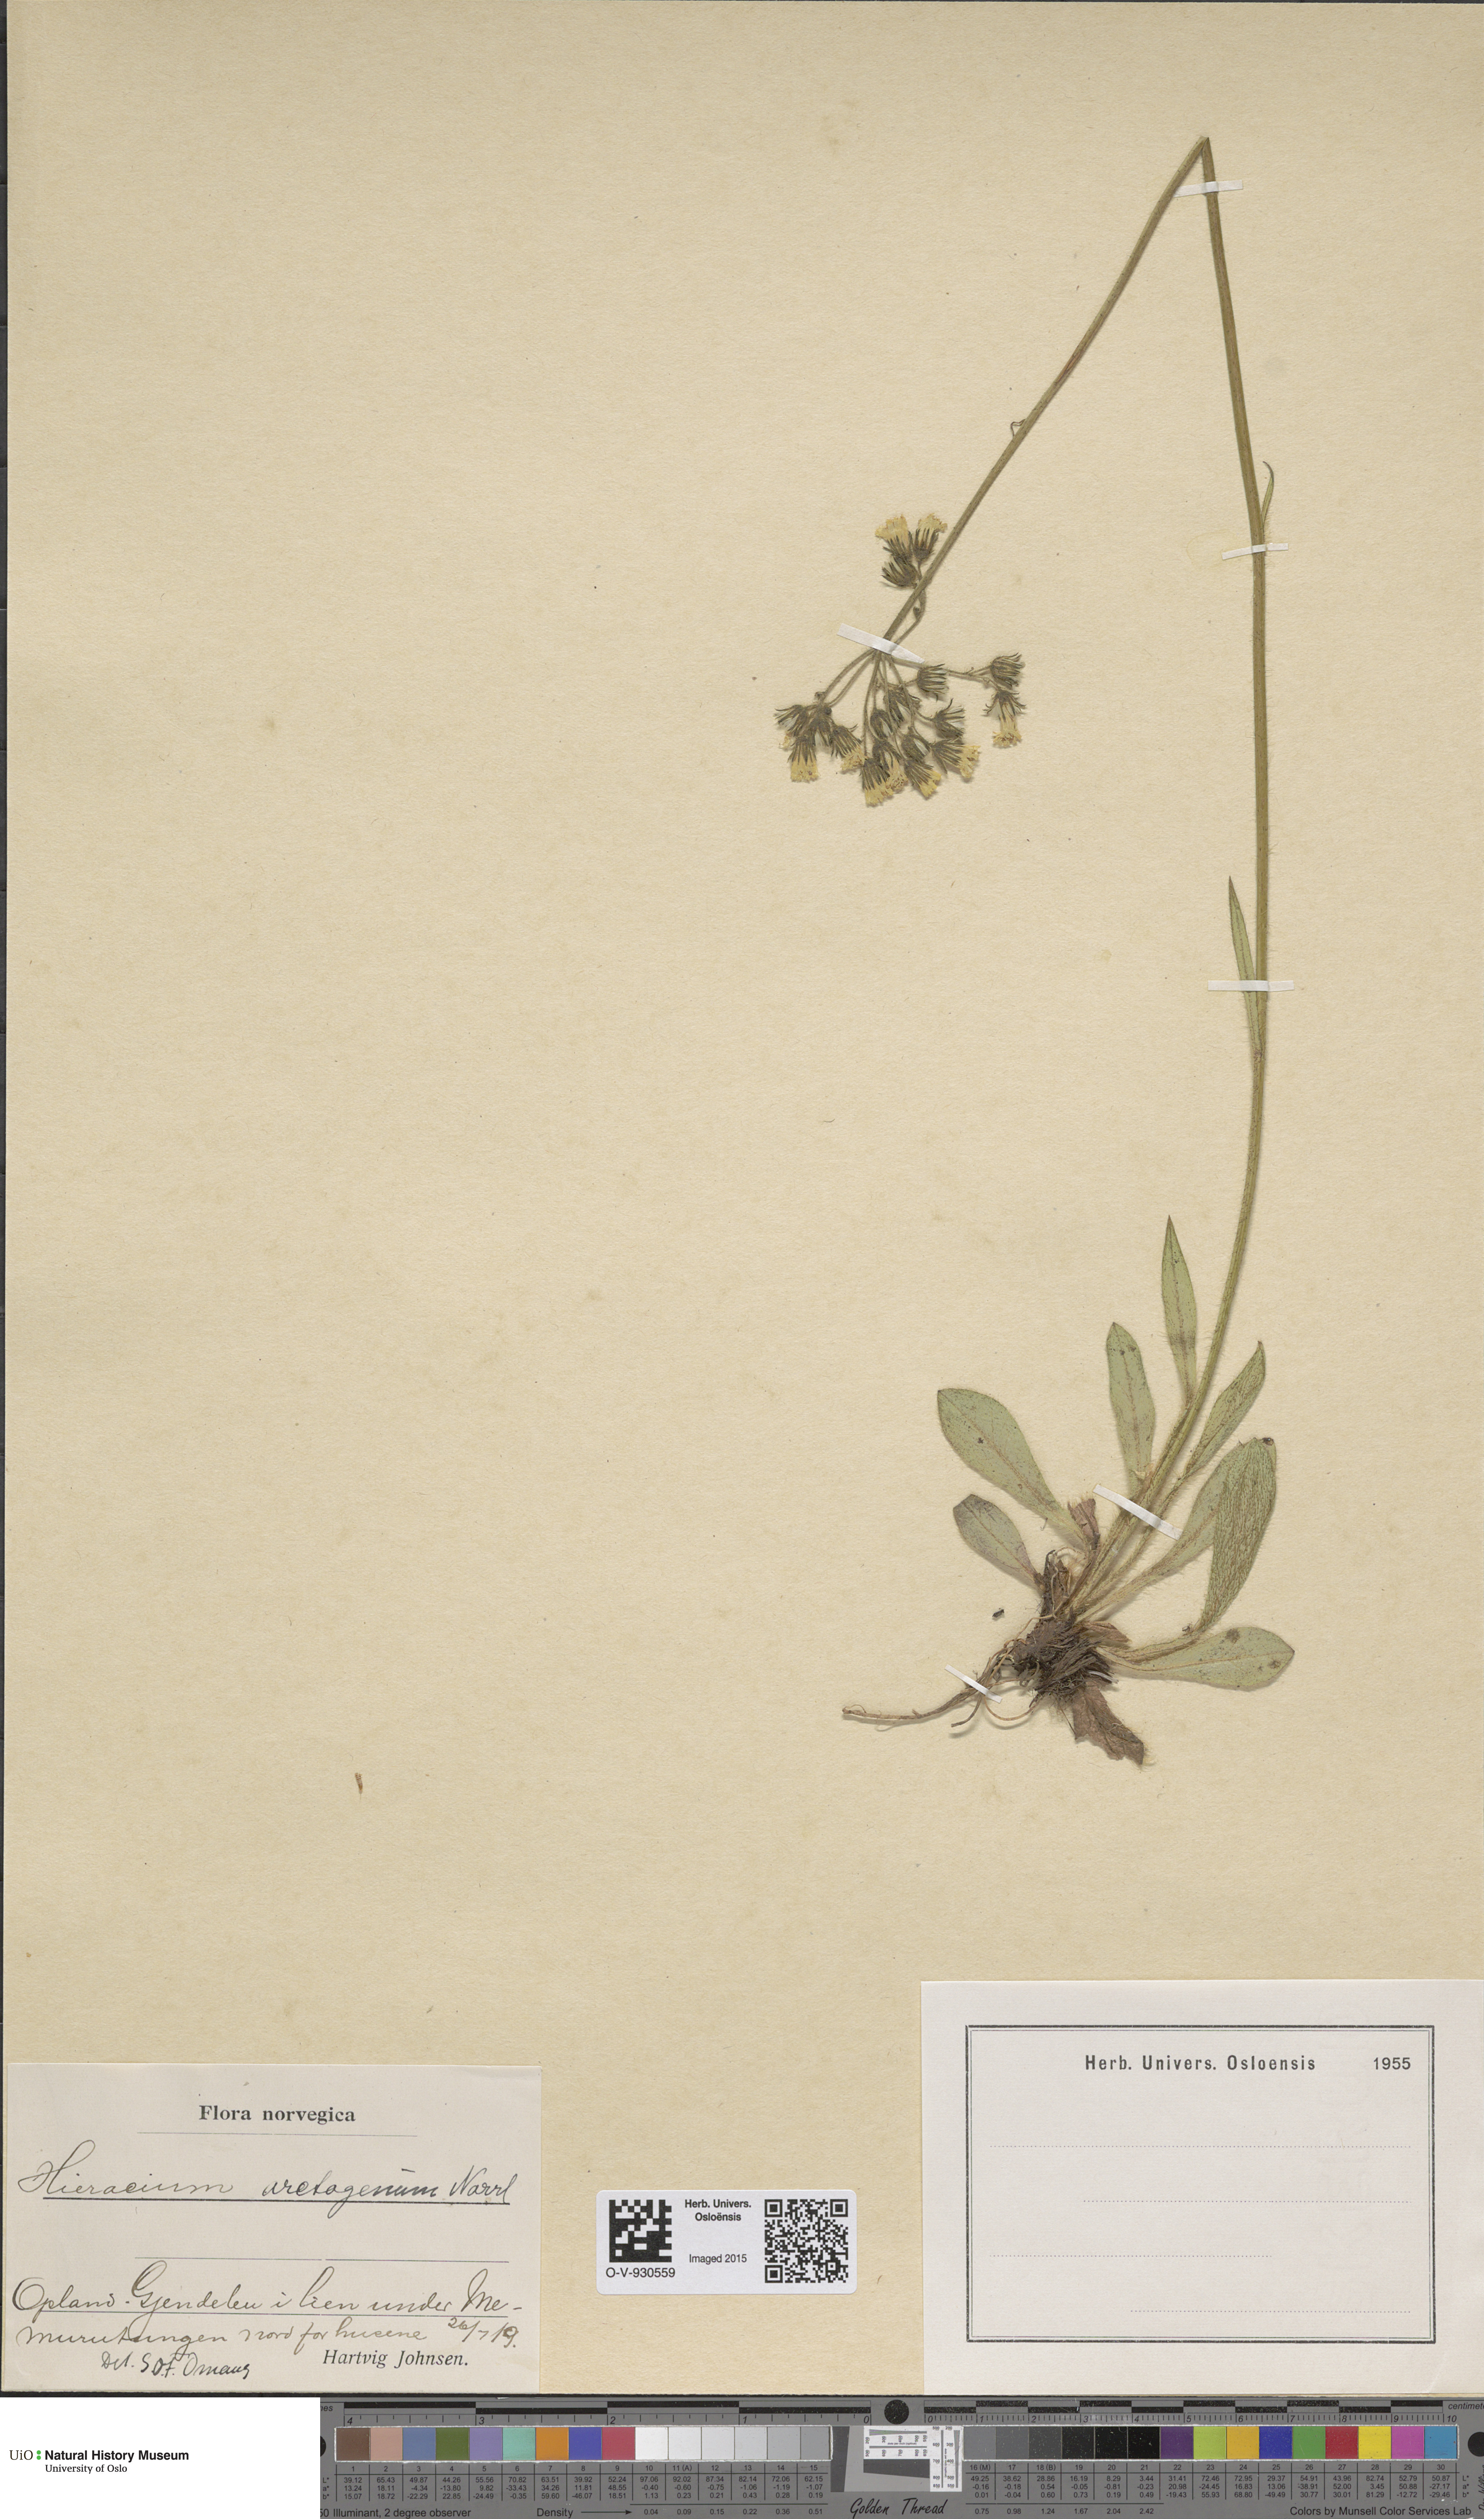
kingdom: Plantae
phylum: Tracheophyta
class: Magnoliopsida
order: Asterales
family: Asteraceae
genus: Pilosella
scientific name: Pilosella cymosa
